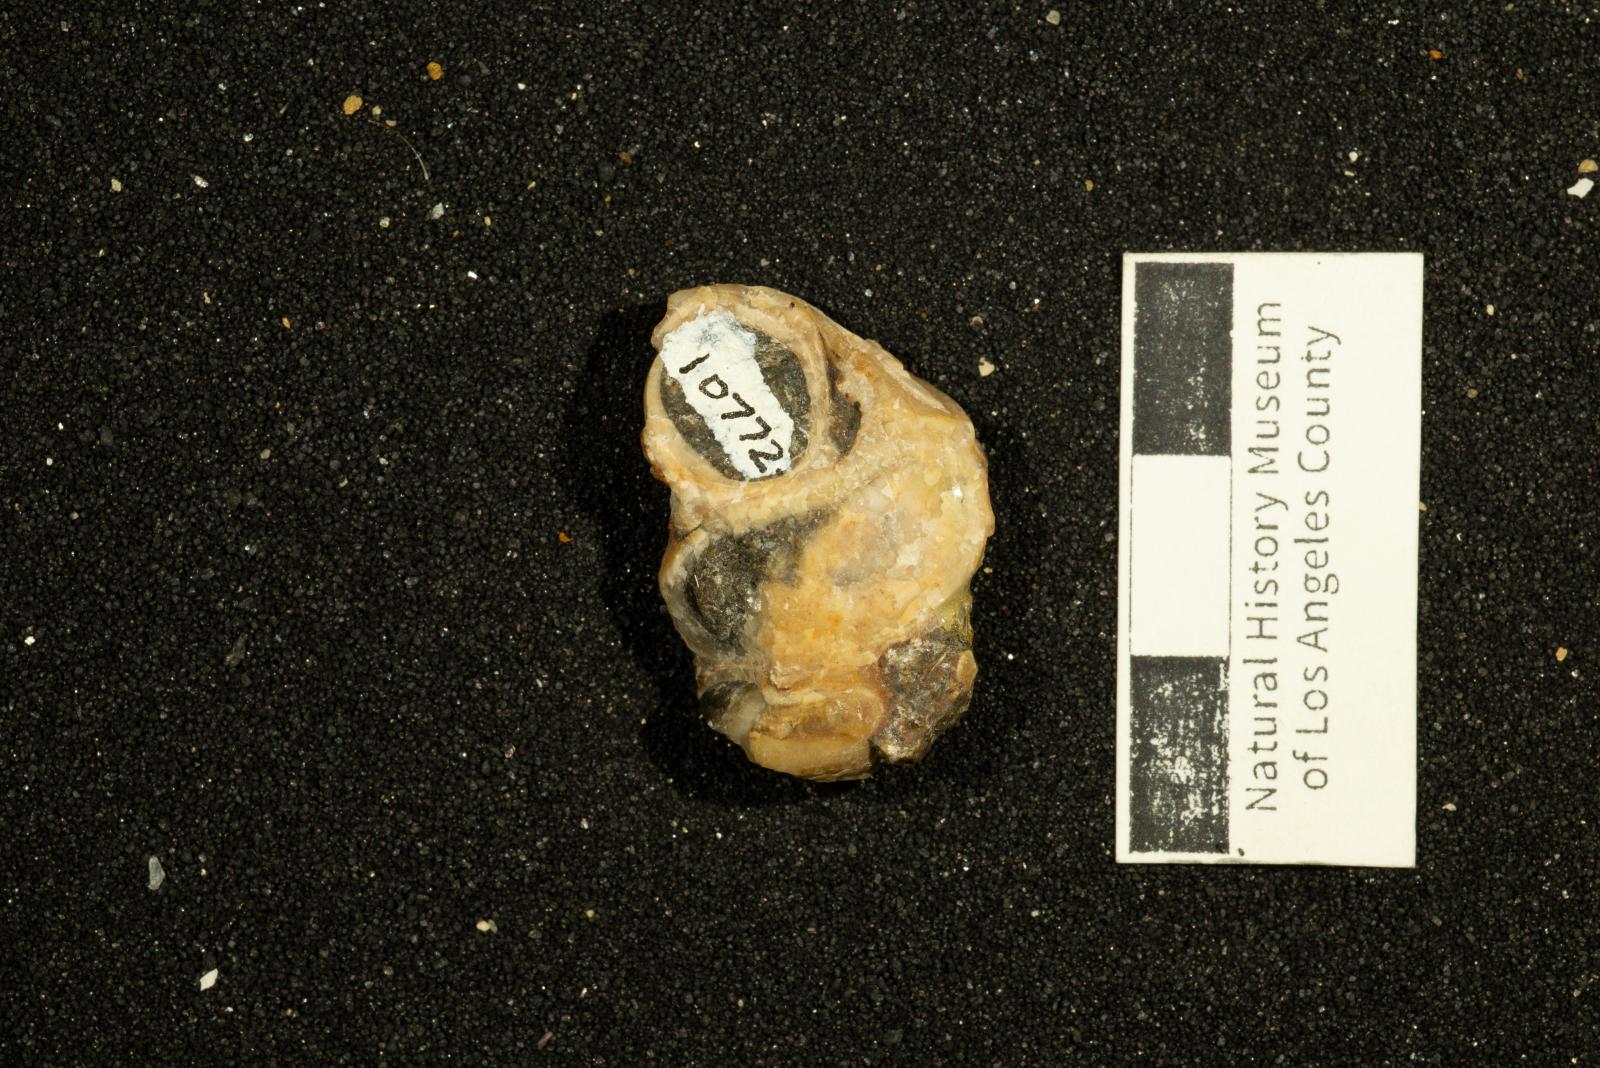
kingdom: Animalia
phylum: Mollusca
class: Gastropoda
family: Turritellidae
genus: Turritella
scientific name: Turritella robusta
